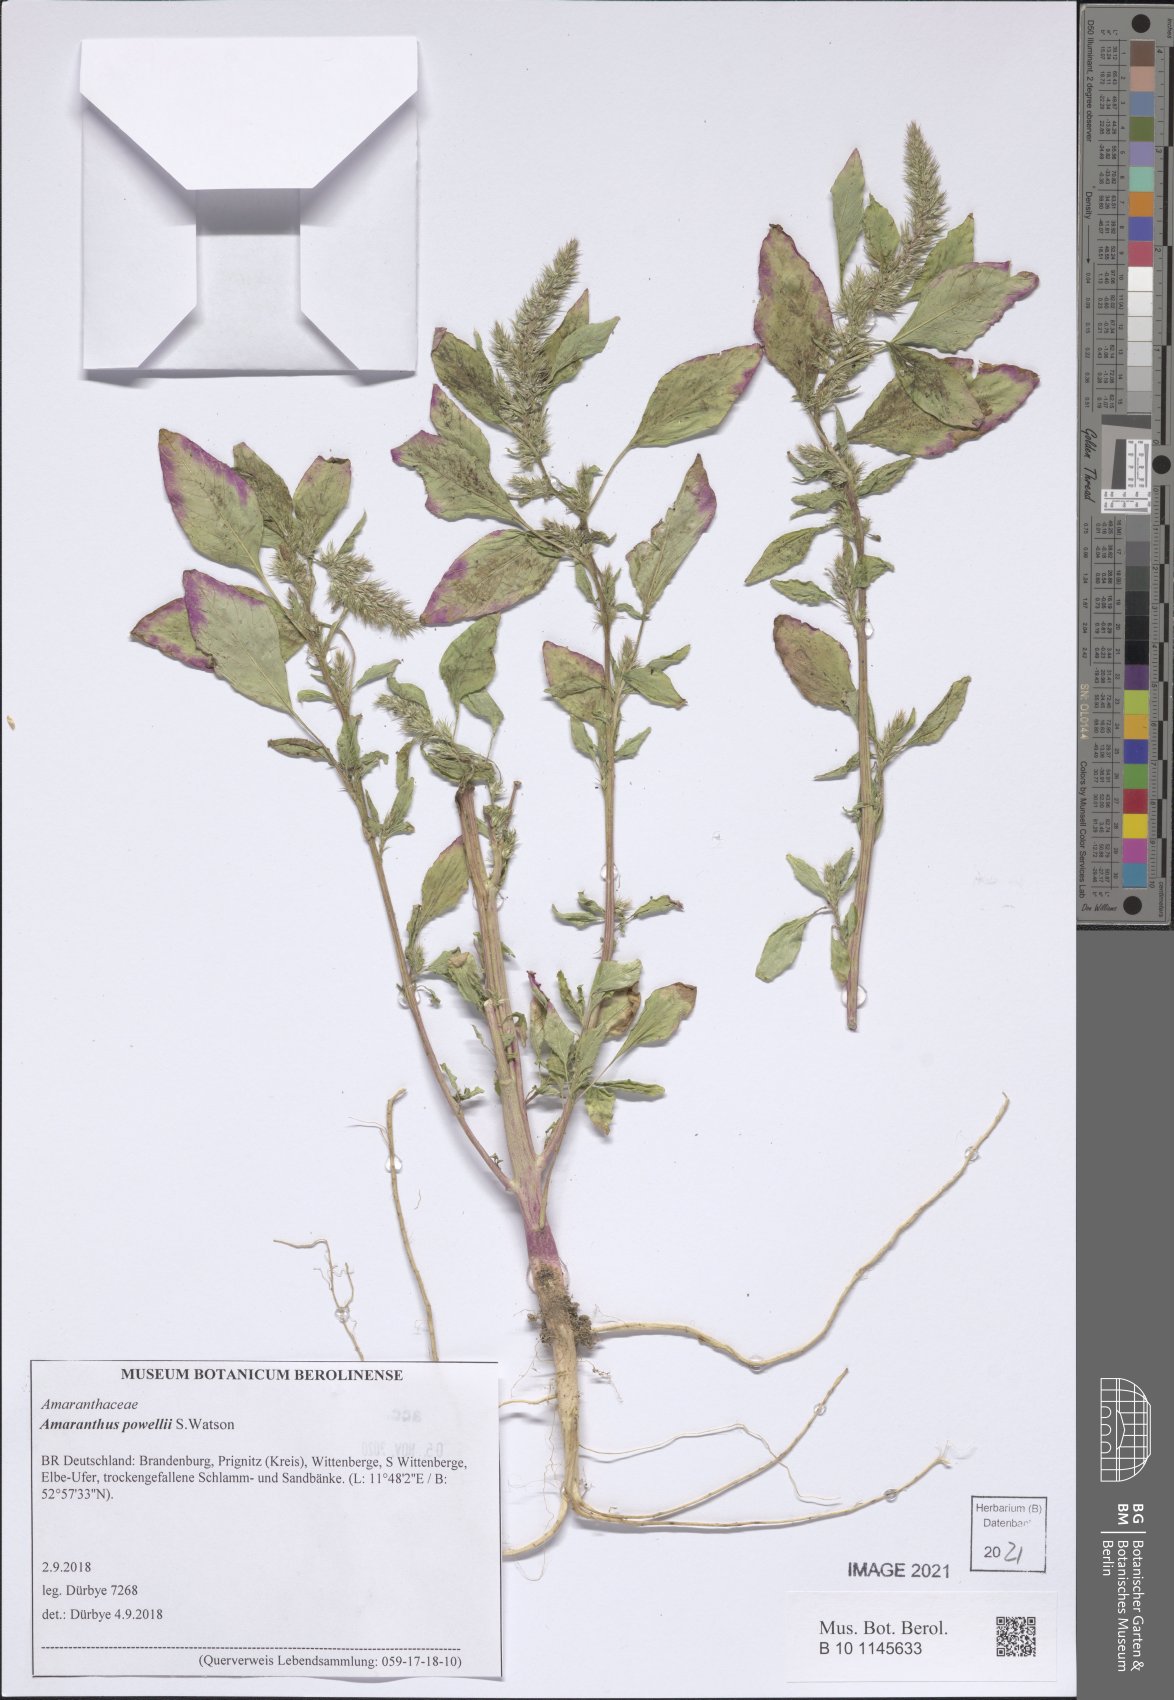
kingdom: Plantae
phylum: Tracheophyta
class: Magnoliopsida
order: Caryophyllales
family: Amaranthaceae
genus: Amaranthus
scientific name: Amaranthus powellii
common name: Powell's amaranth
